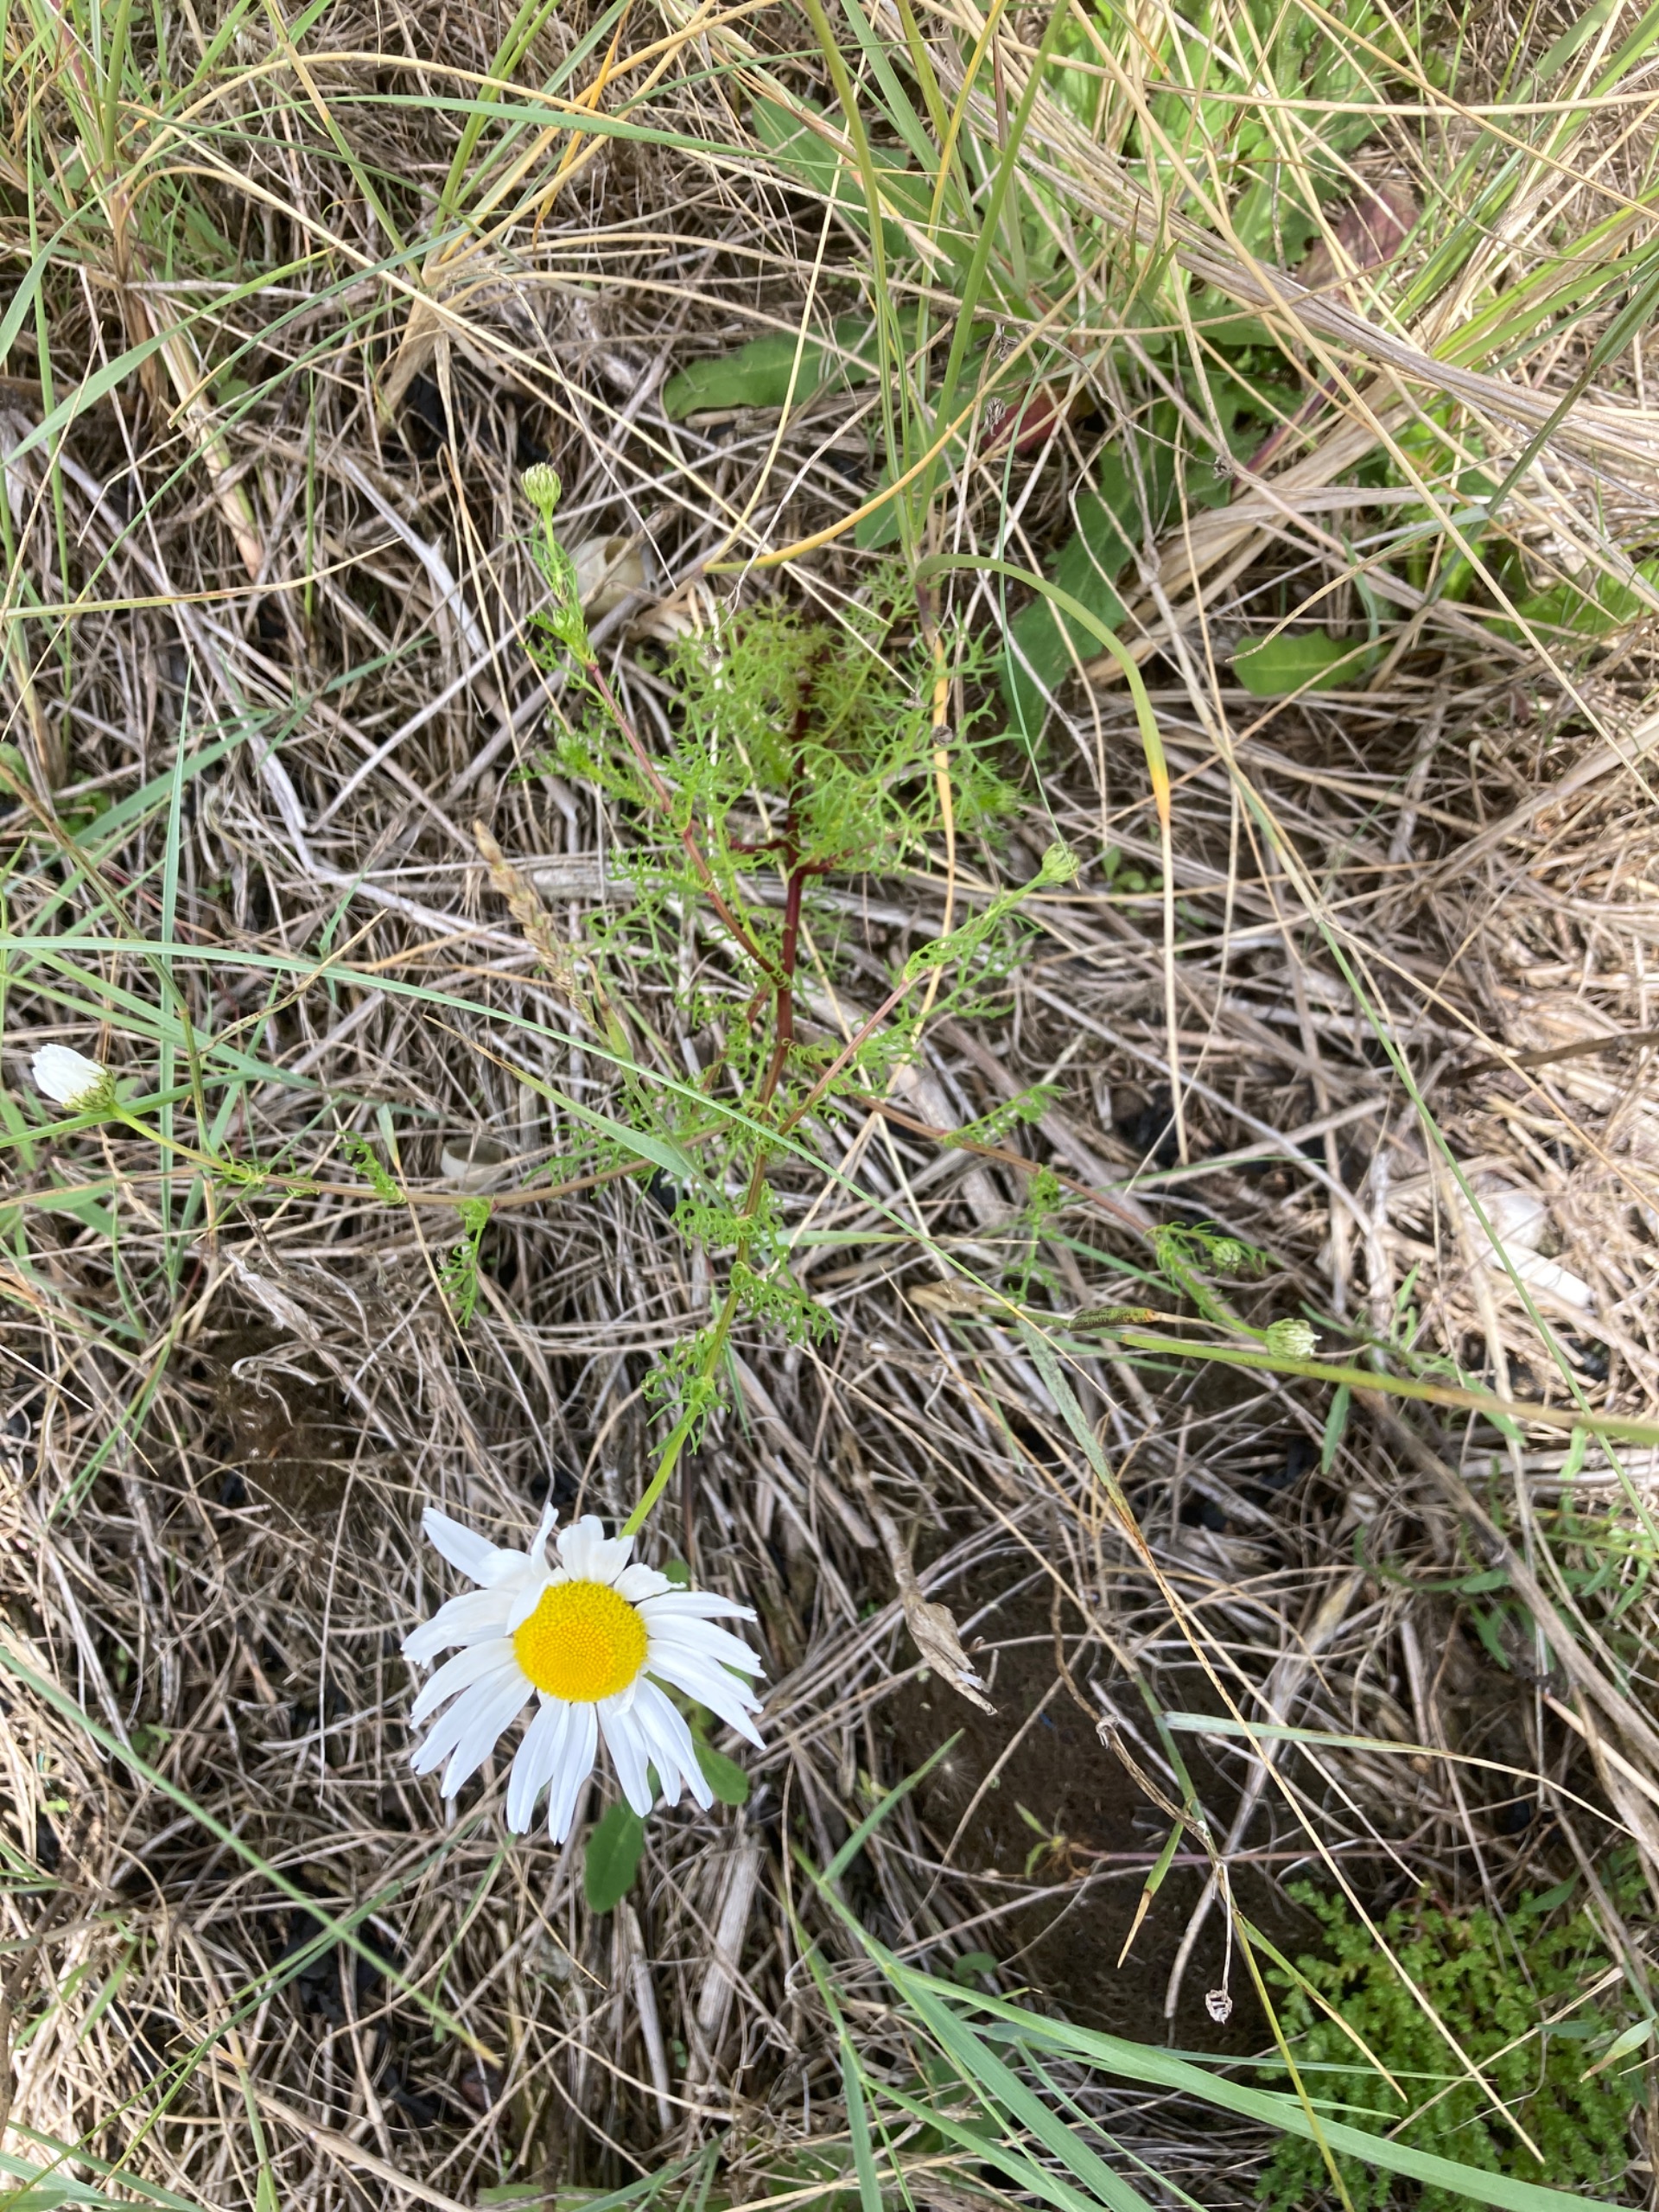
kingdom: Plantae
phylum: Tracheophyta
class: Magnoliopsida
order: Asterales
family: Asteraceae
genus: Tripleurospermum
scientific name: Tripleurospermum maritimum
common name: Strand-kamille
